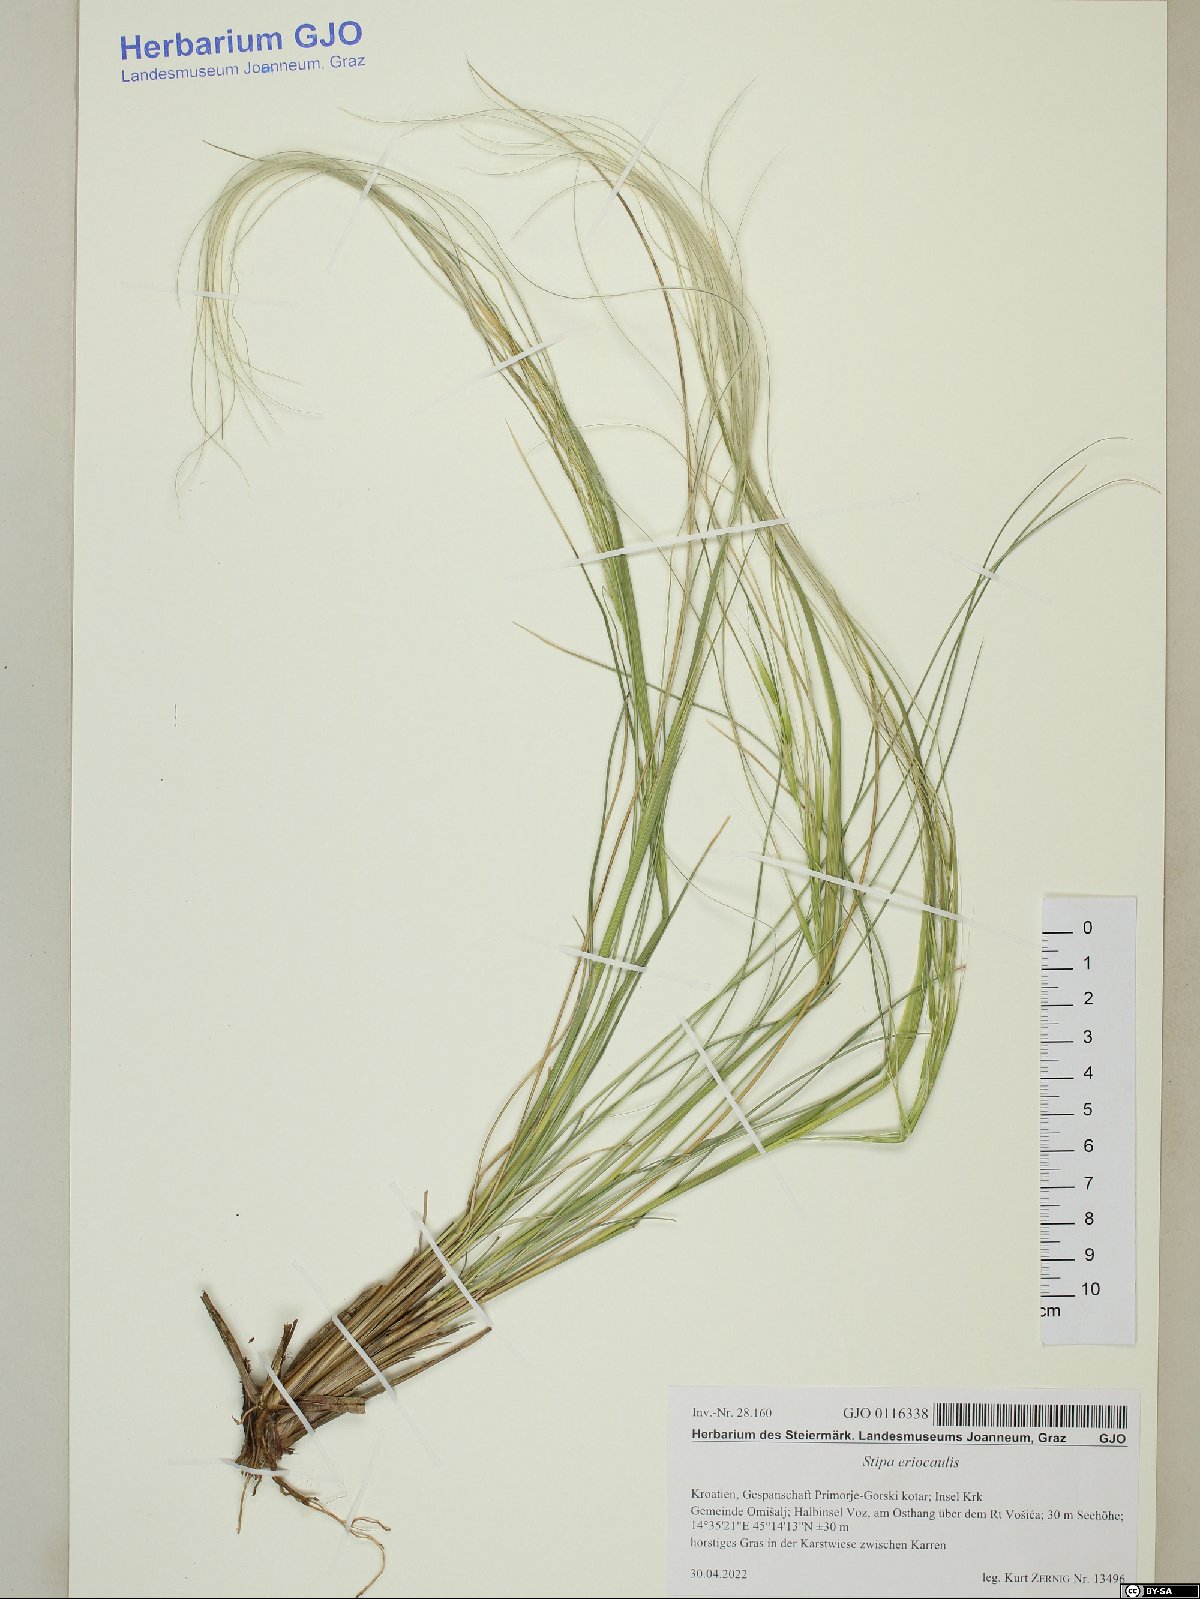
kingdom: Plantae
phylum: Tracheophyta
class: Liliopsida
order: Poales
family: Poaceae
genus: Stipa
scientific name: Stipa pennata
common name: European feather grass
